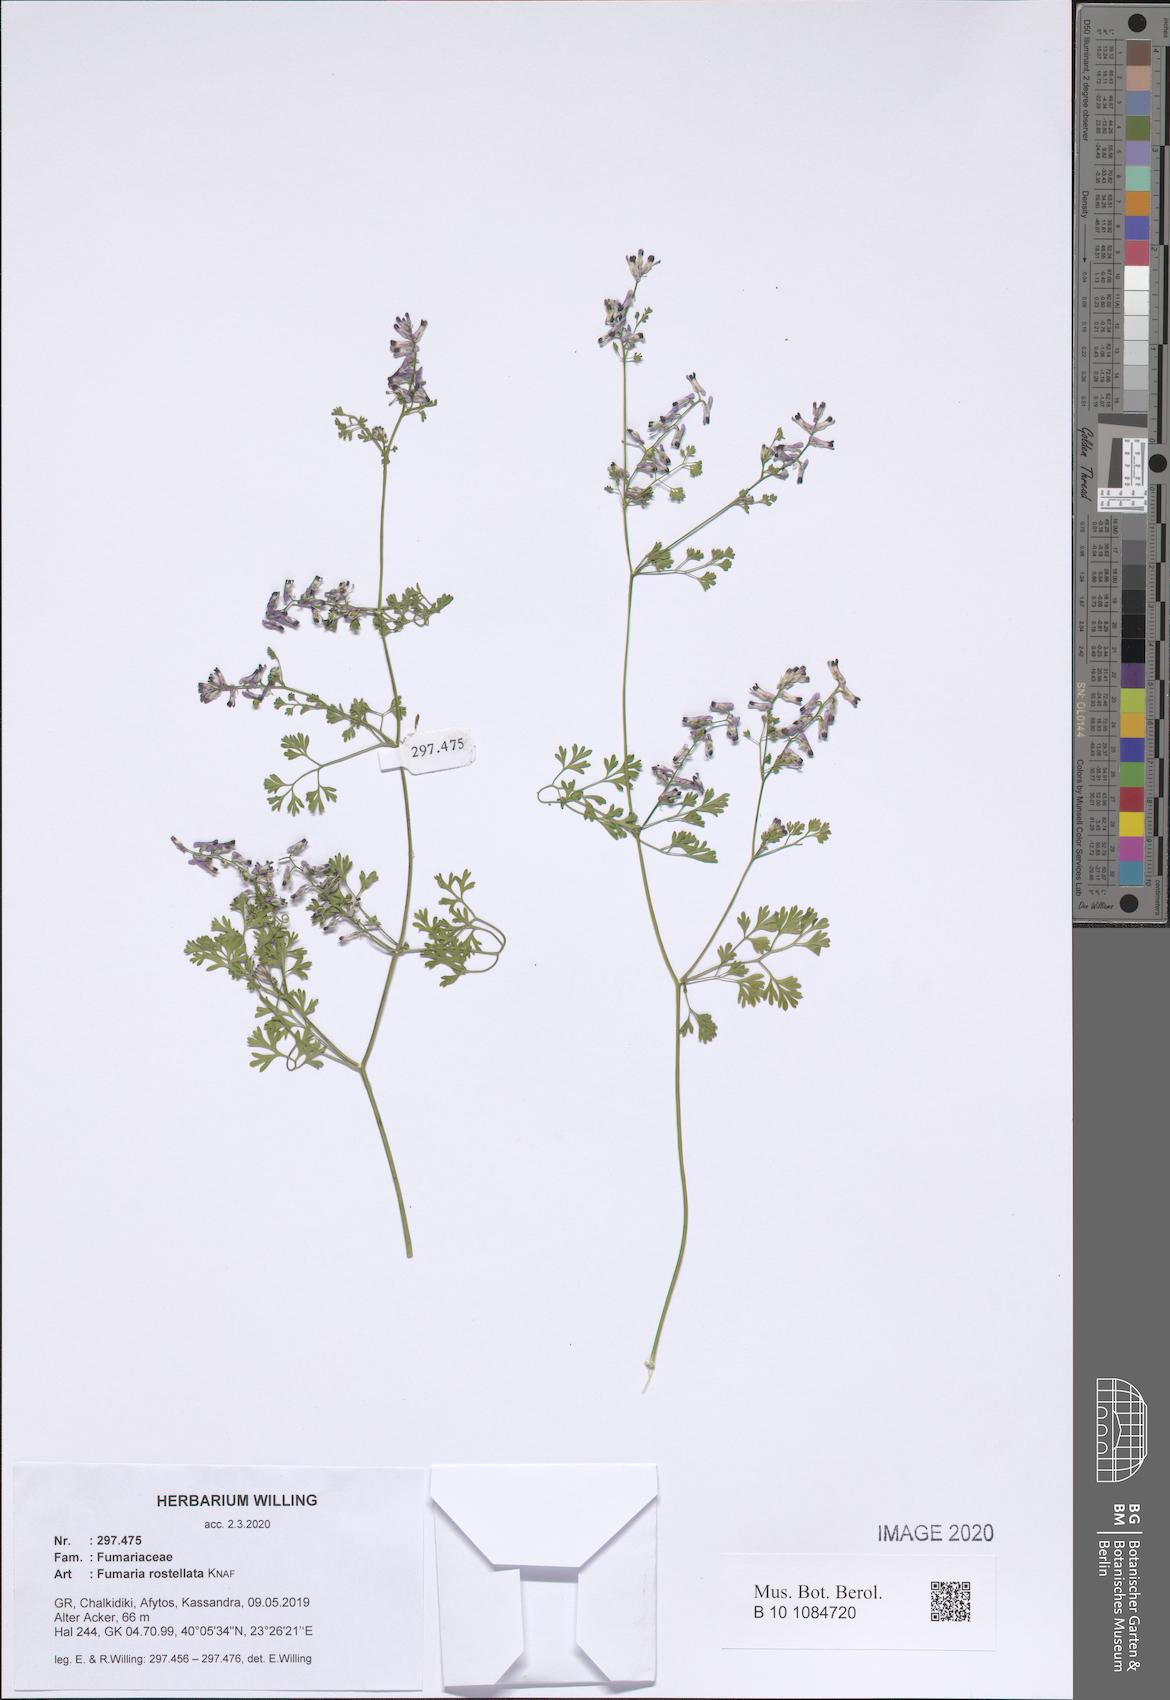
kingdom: Plantae
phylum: Tracheophyta
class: Magnoliopsida
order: Ranunculales
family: Papaveraceae
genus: Fumaria
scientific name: Fumaria rostellata
